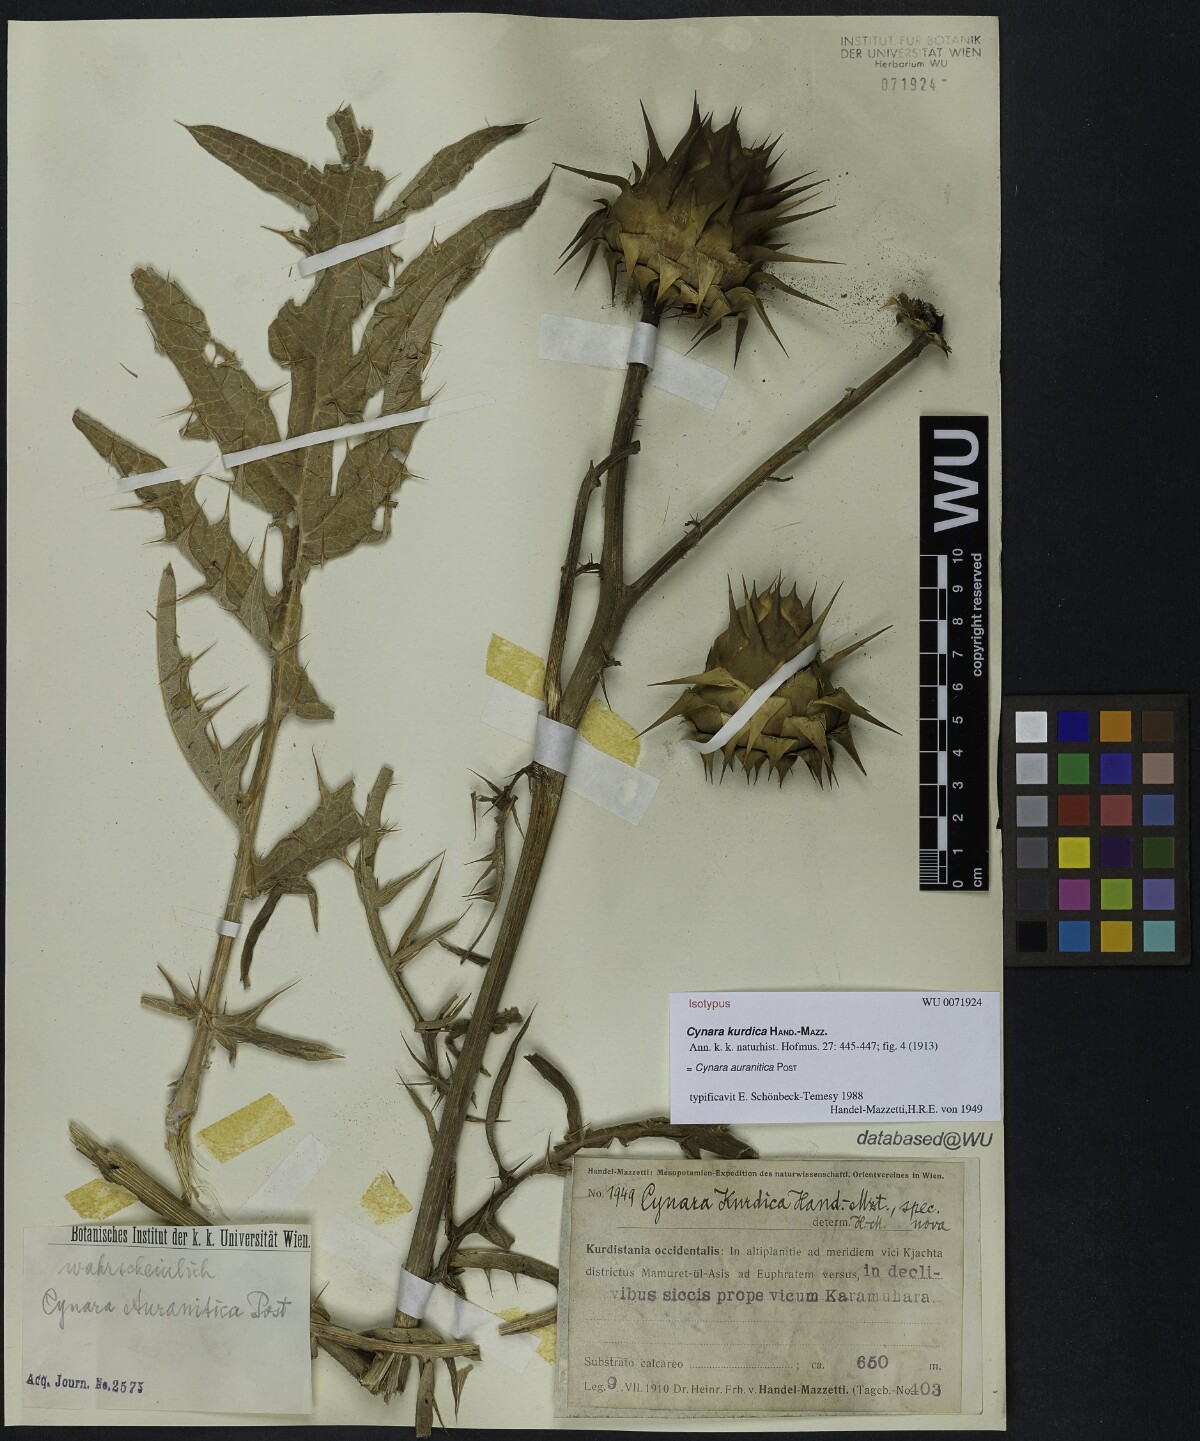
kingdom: Plantae
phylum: Tracheophyta
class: Magnoliopsida
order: Asterales
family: Asteraceae
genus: Cynara
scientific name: Cynara auranitica
